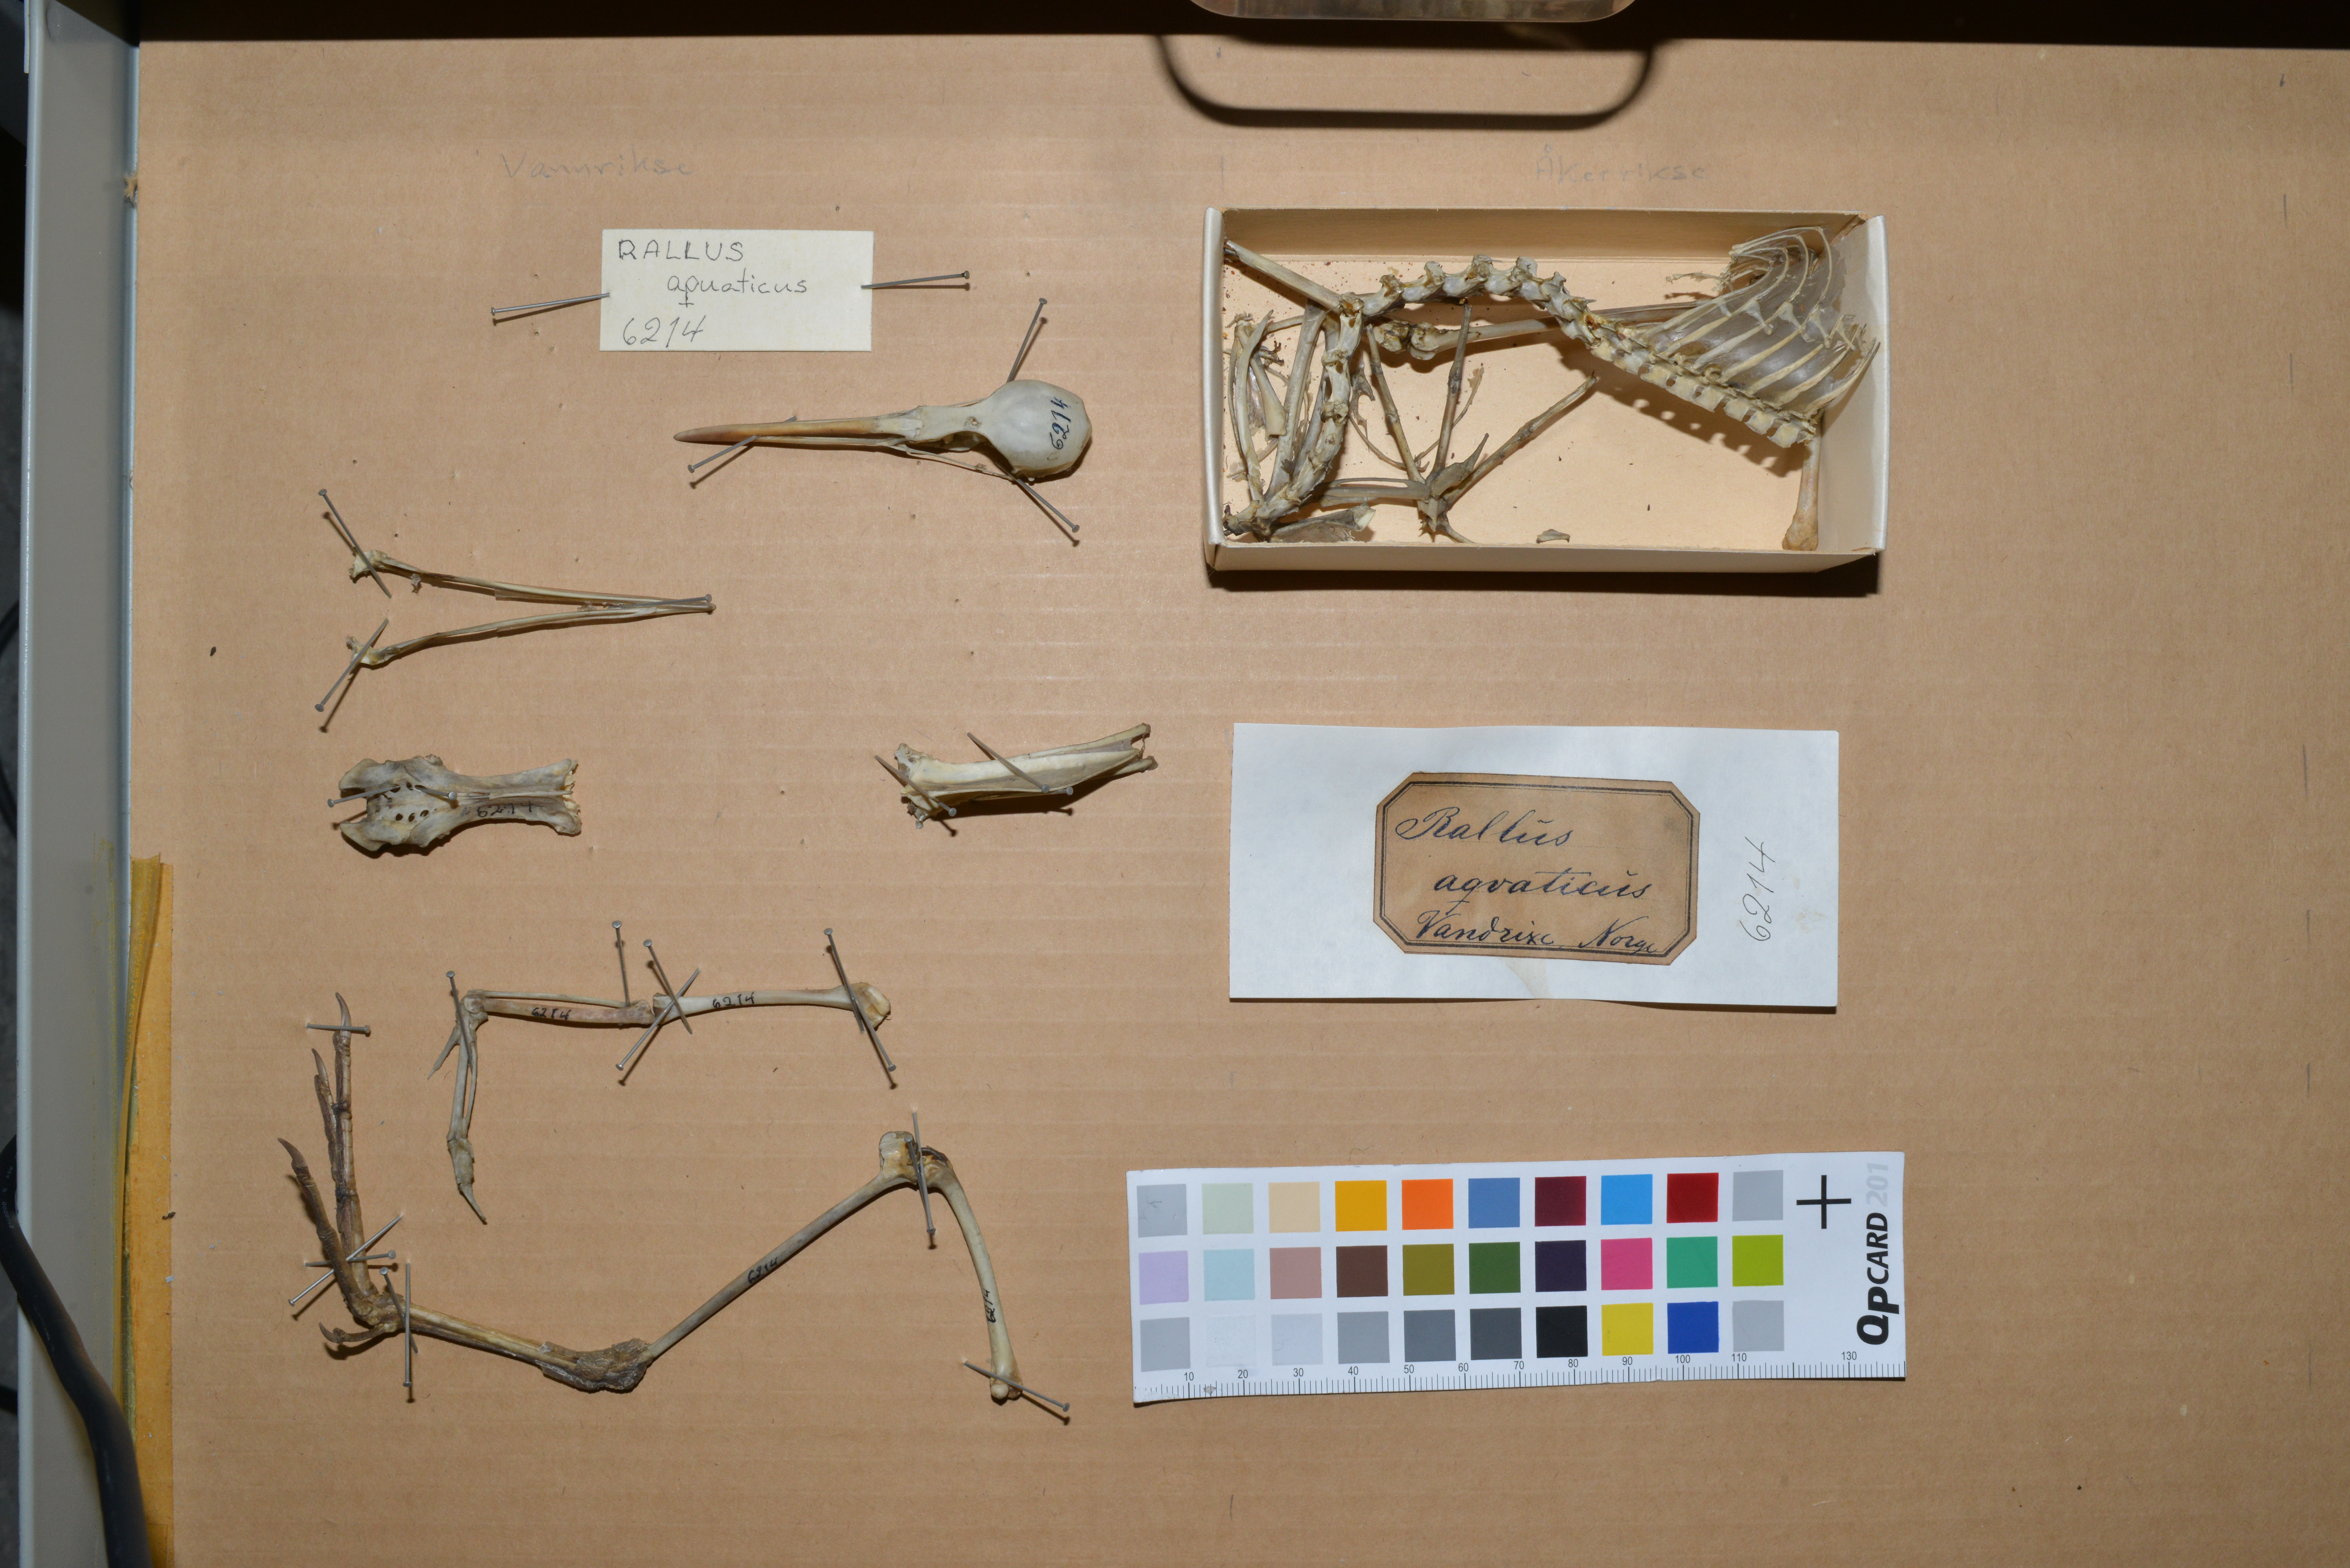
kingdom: Animalia
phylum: Chordata
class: Aves
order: Gruiformes
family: Rallidae
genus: Rallus
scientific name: Rallus aquaticus
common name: Water rail
